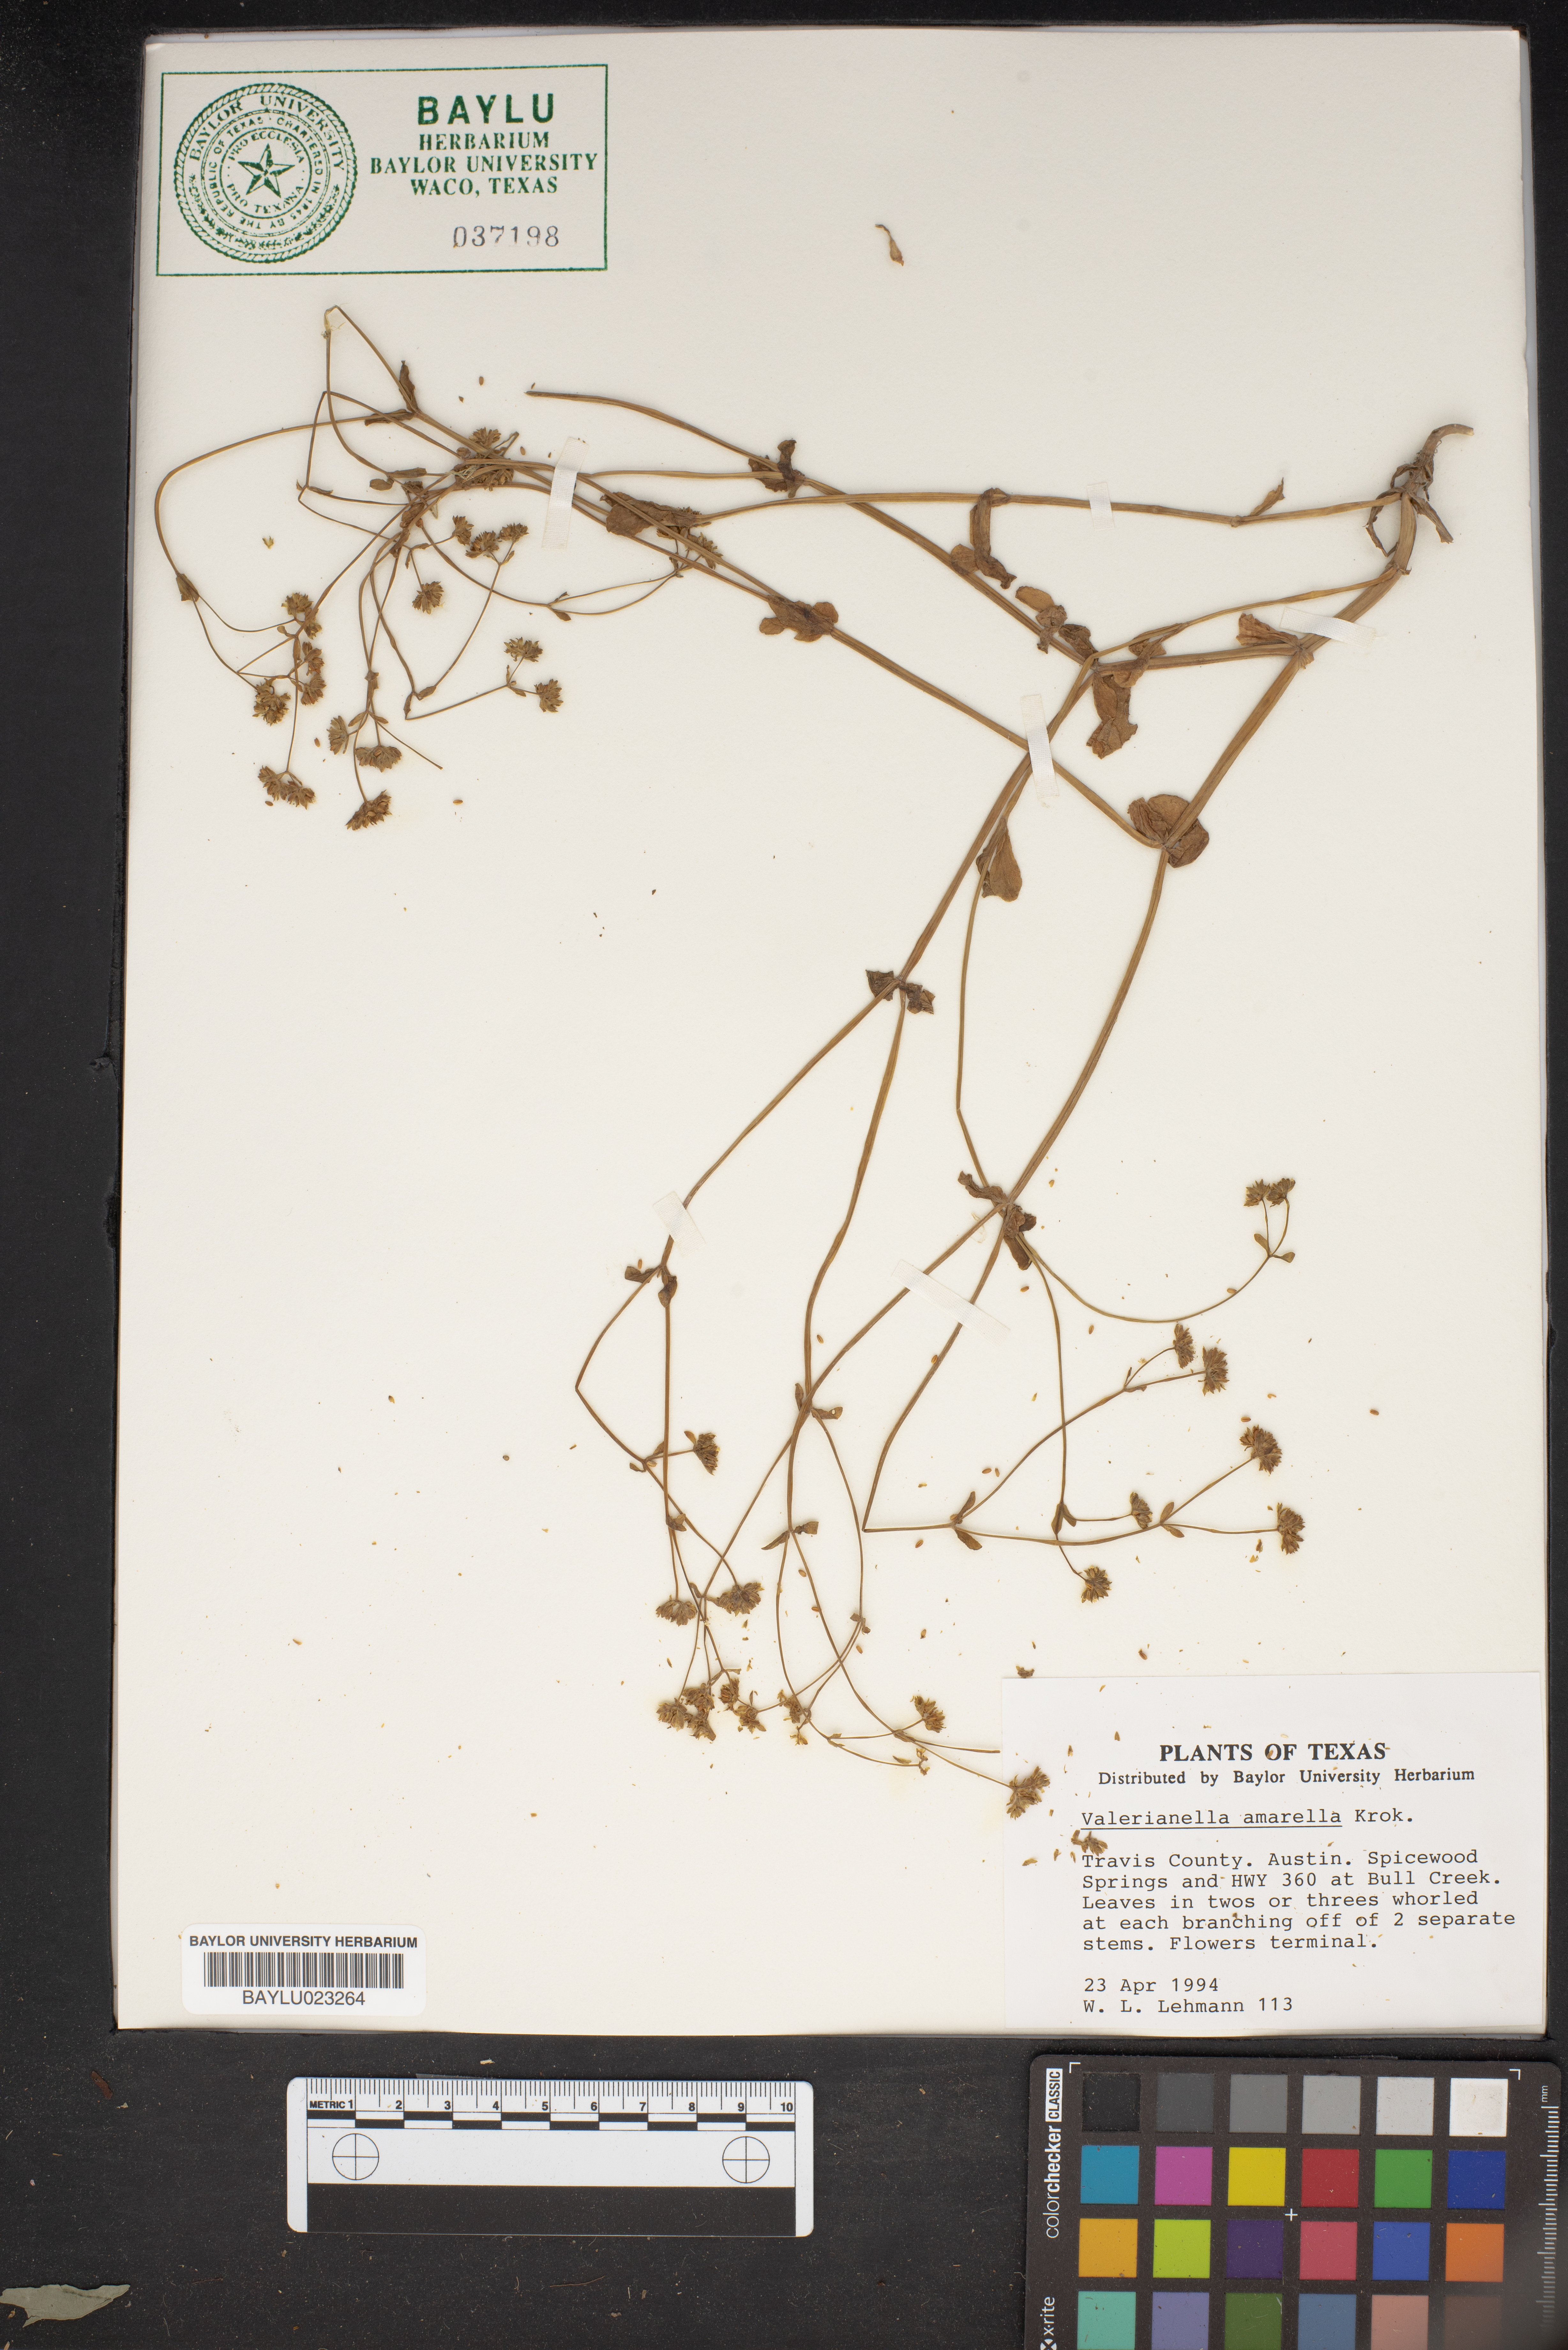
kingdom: Plantae
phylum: Tracheophyta
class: Magnoliopsida
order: Dipsacales
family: Caprifoliaceae
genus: Valerianella
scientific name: Valerianella amarella
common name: Hariy cornsalad
